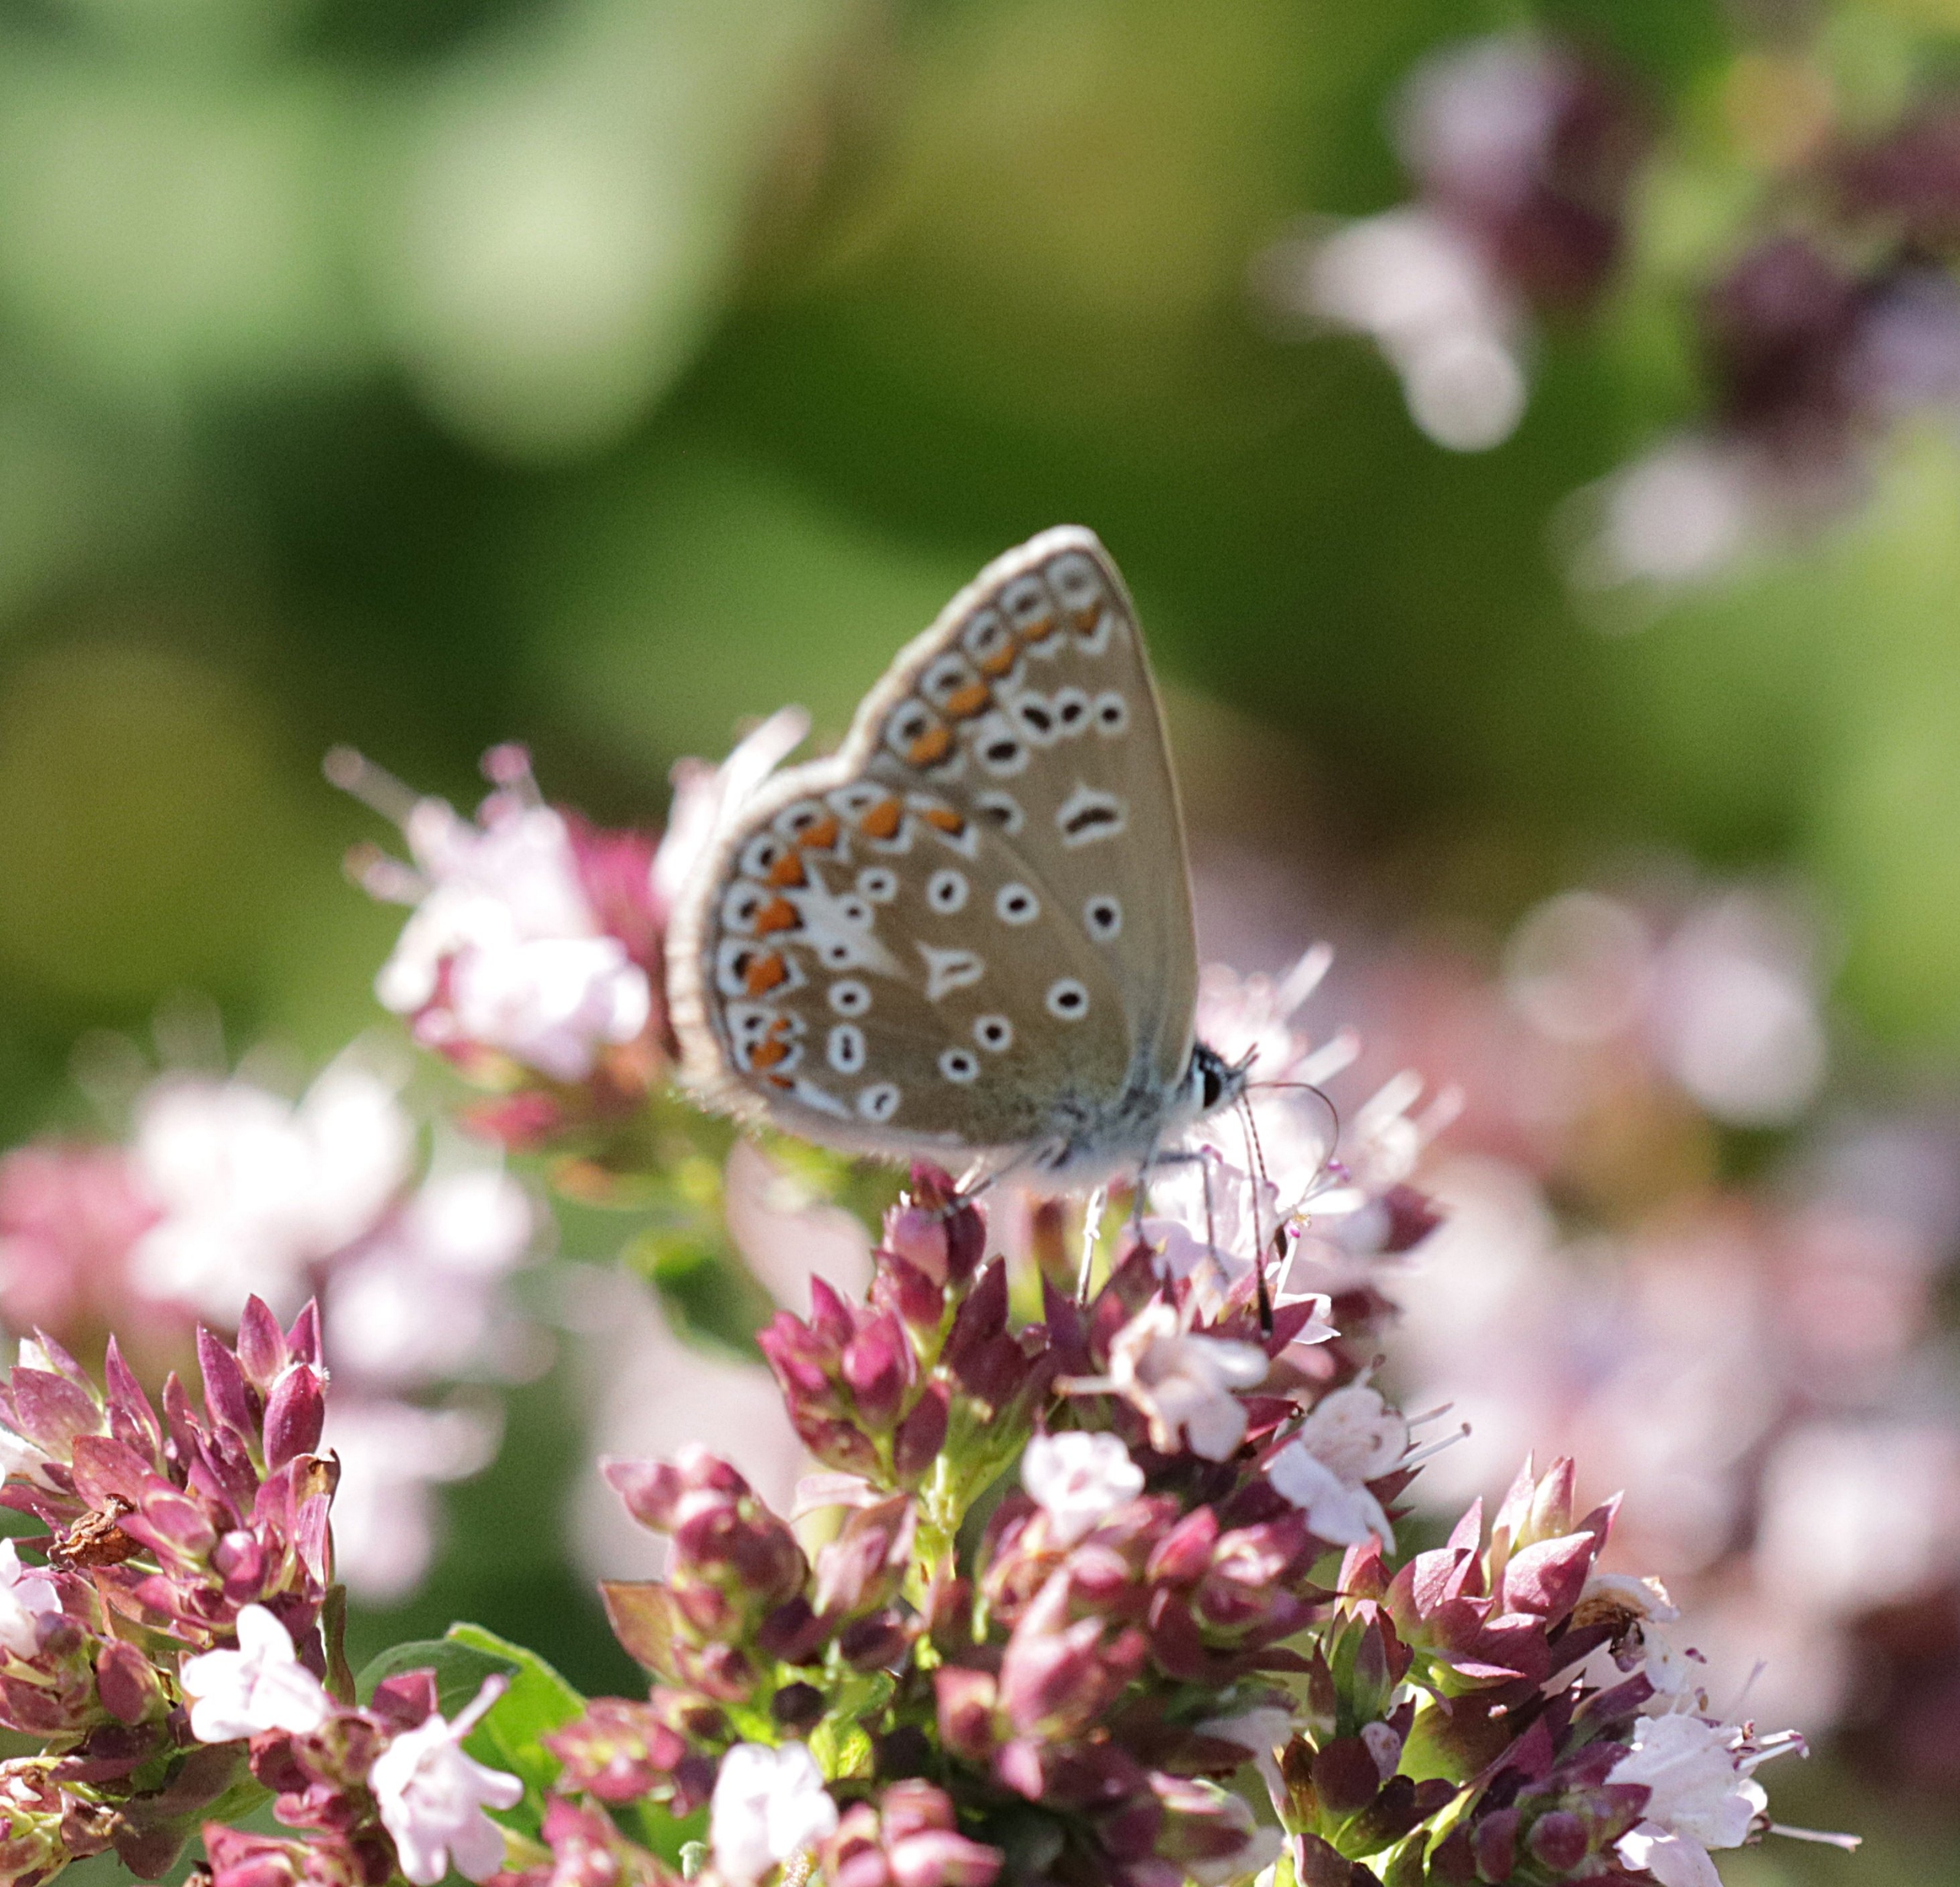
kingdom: Animalia
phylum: Arthropoda
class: Insecta
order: Lepidoptera
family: Lycaenidae
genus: Polyommatus
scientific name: Polyommatus icarus
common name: Almindelig blåfugl
